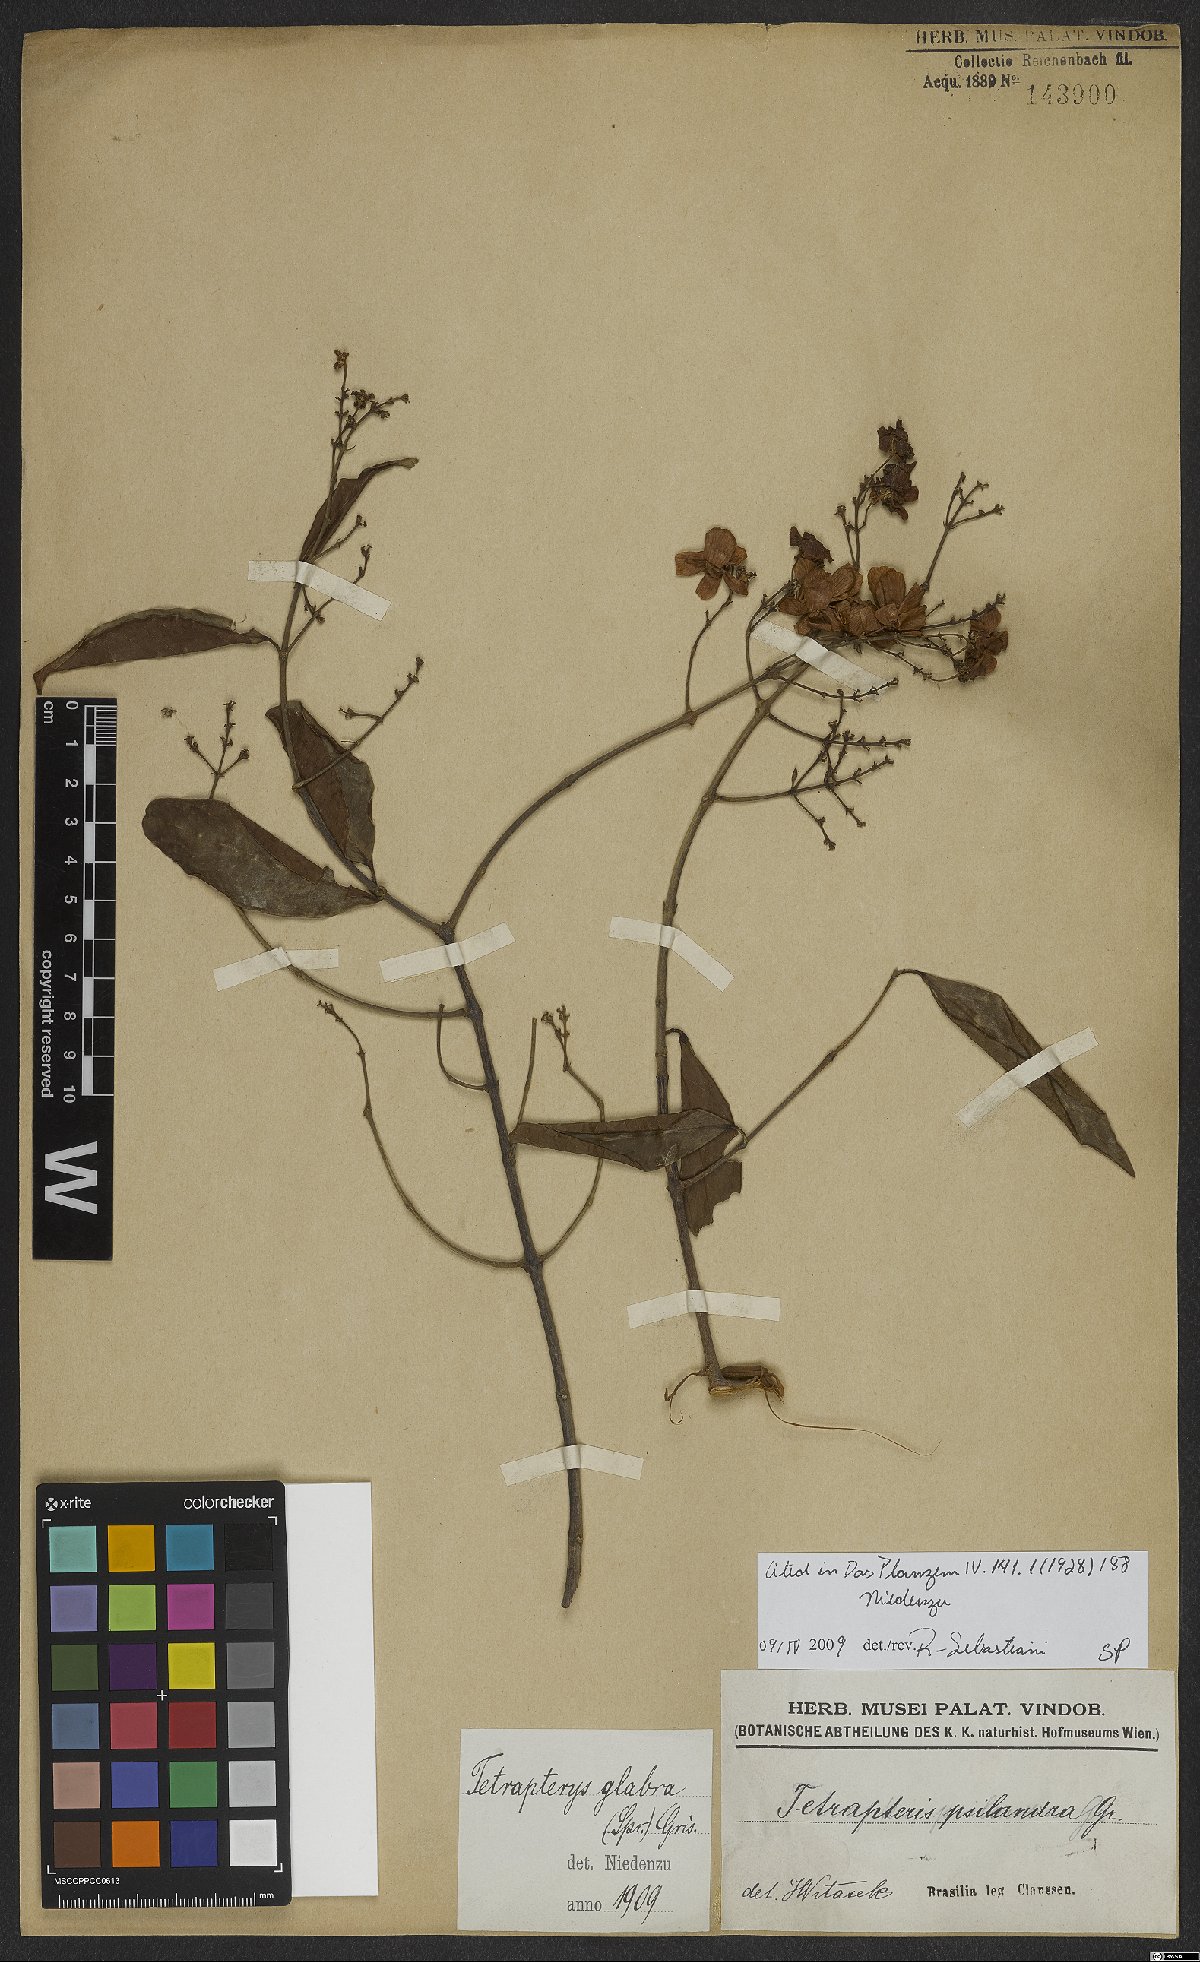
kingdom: Plantae
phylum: Tracheophyta
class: Magnoliopsida
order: Malpighiales
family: Malpighiaceae
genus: Niedenzuella
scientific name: Niedenzuella glabra
